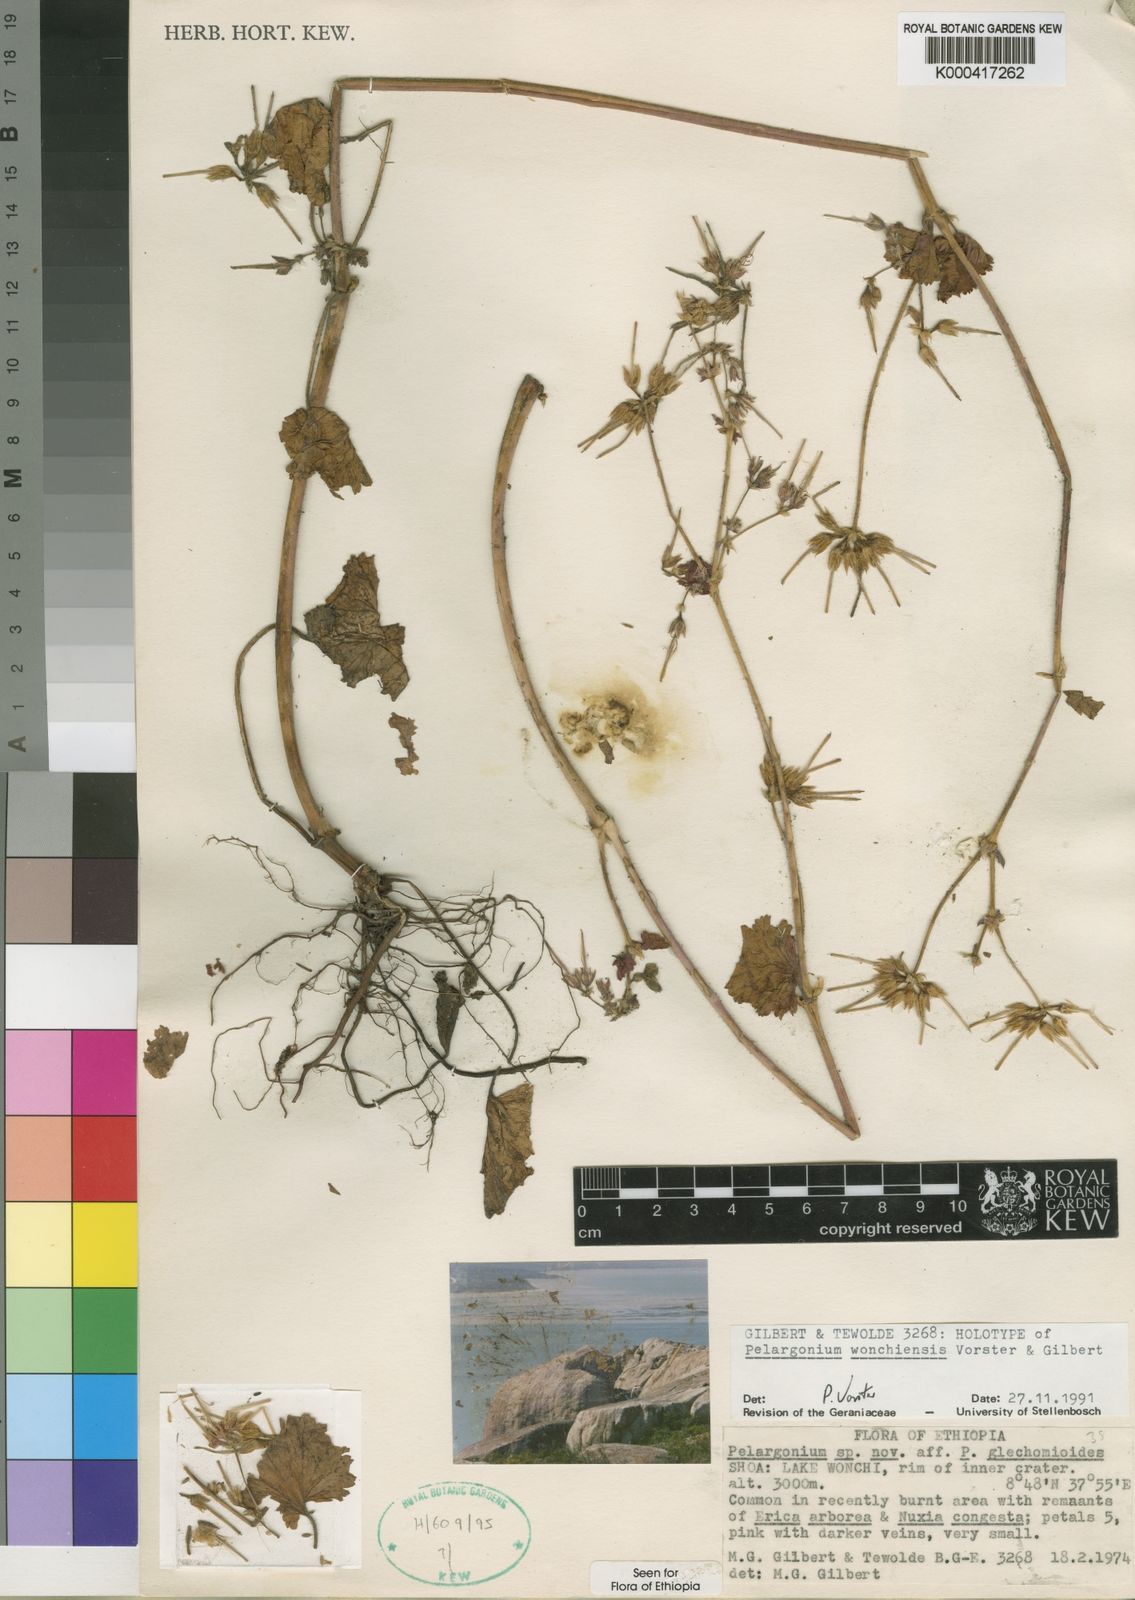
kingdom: Plantae
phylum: Tracheophyta
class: Magnoliopsida
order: Geraniales
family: Geraniaceae
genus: Pelargonium
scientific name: Pelargonium wonchiense
